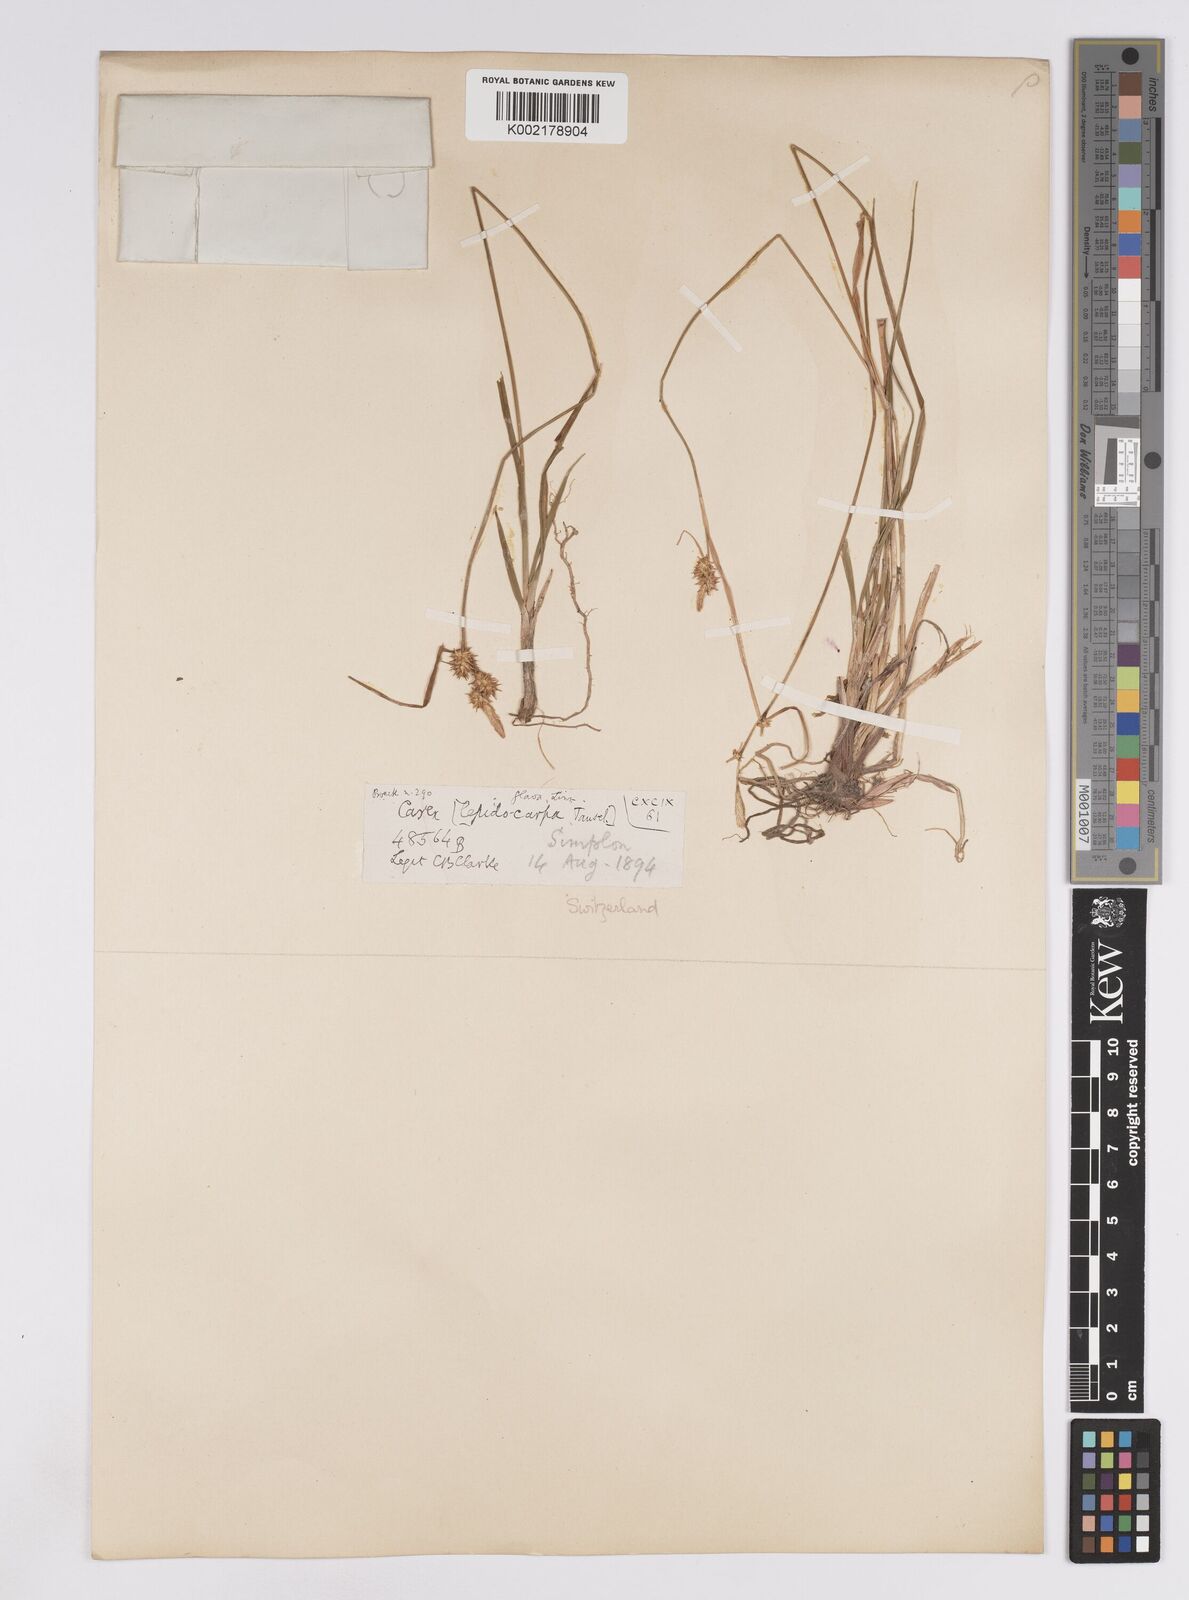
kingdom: Plantae
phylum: Tracheophyta
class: Liliopsida
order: Poales
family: Cyperaceae
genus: Carex
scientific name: Carex lepidocarpa
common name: Long-stalked yellow-sedge
